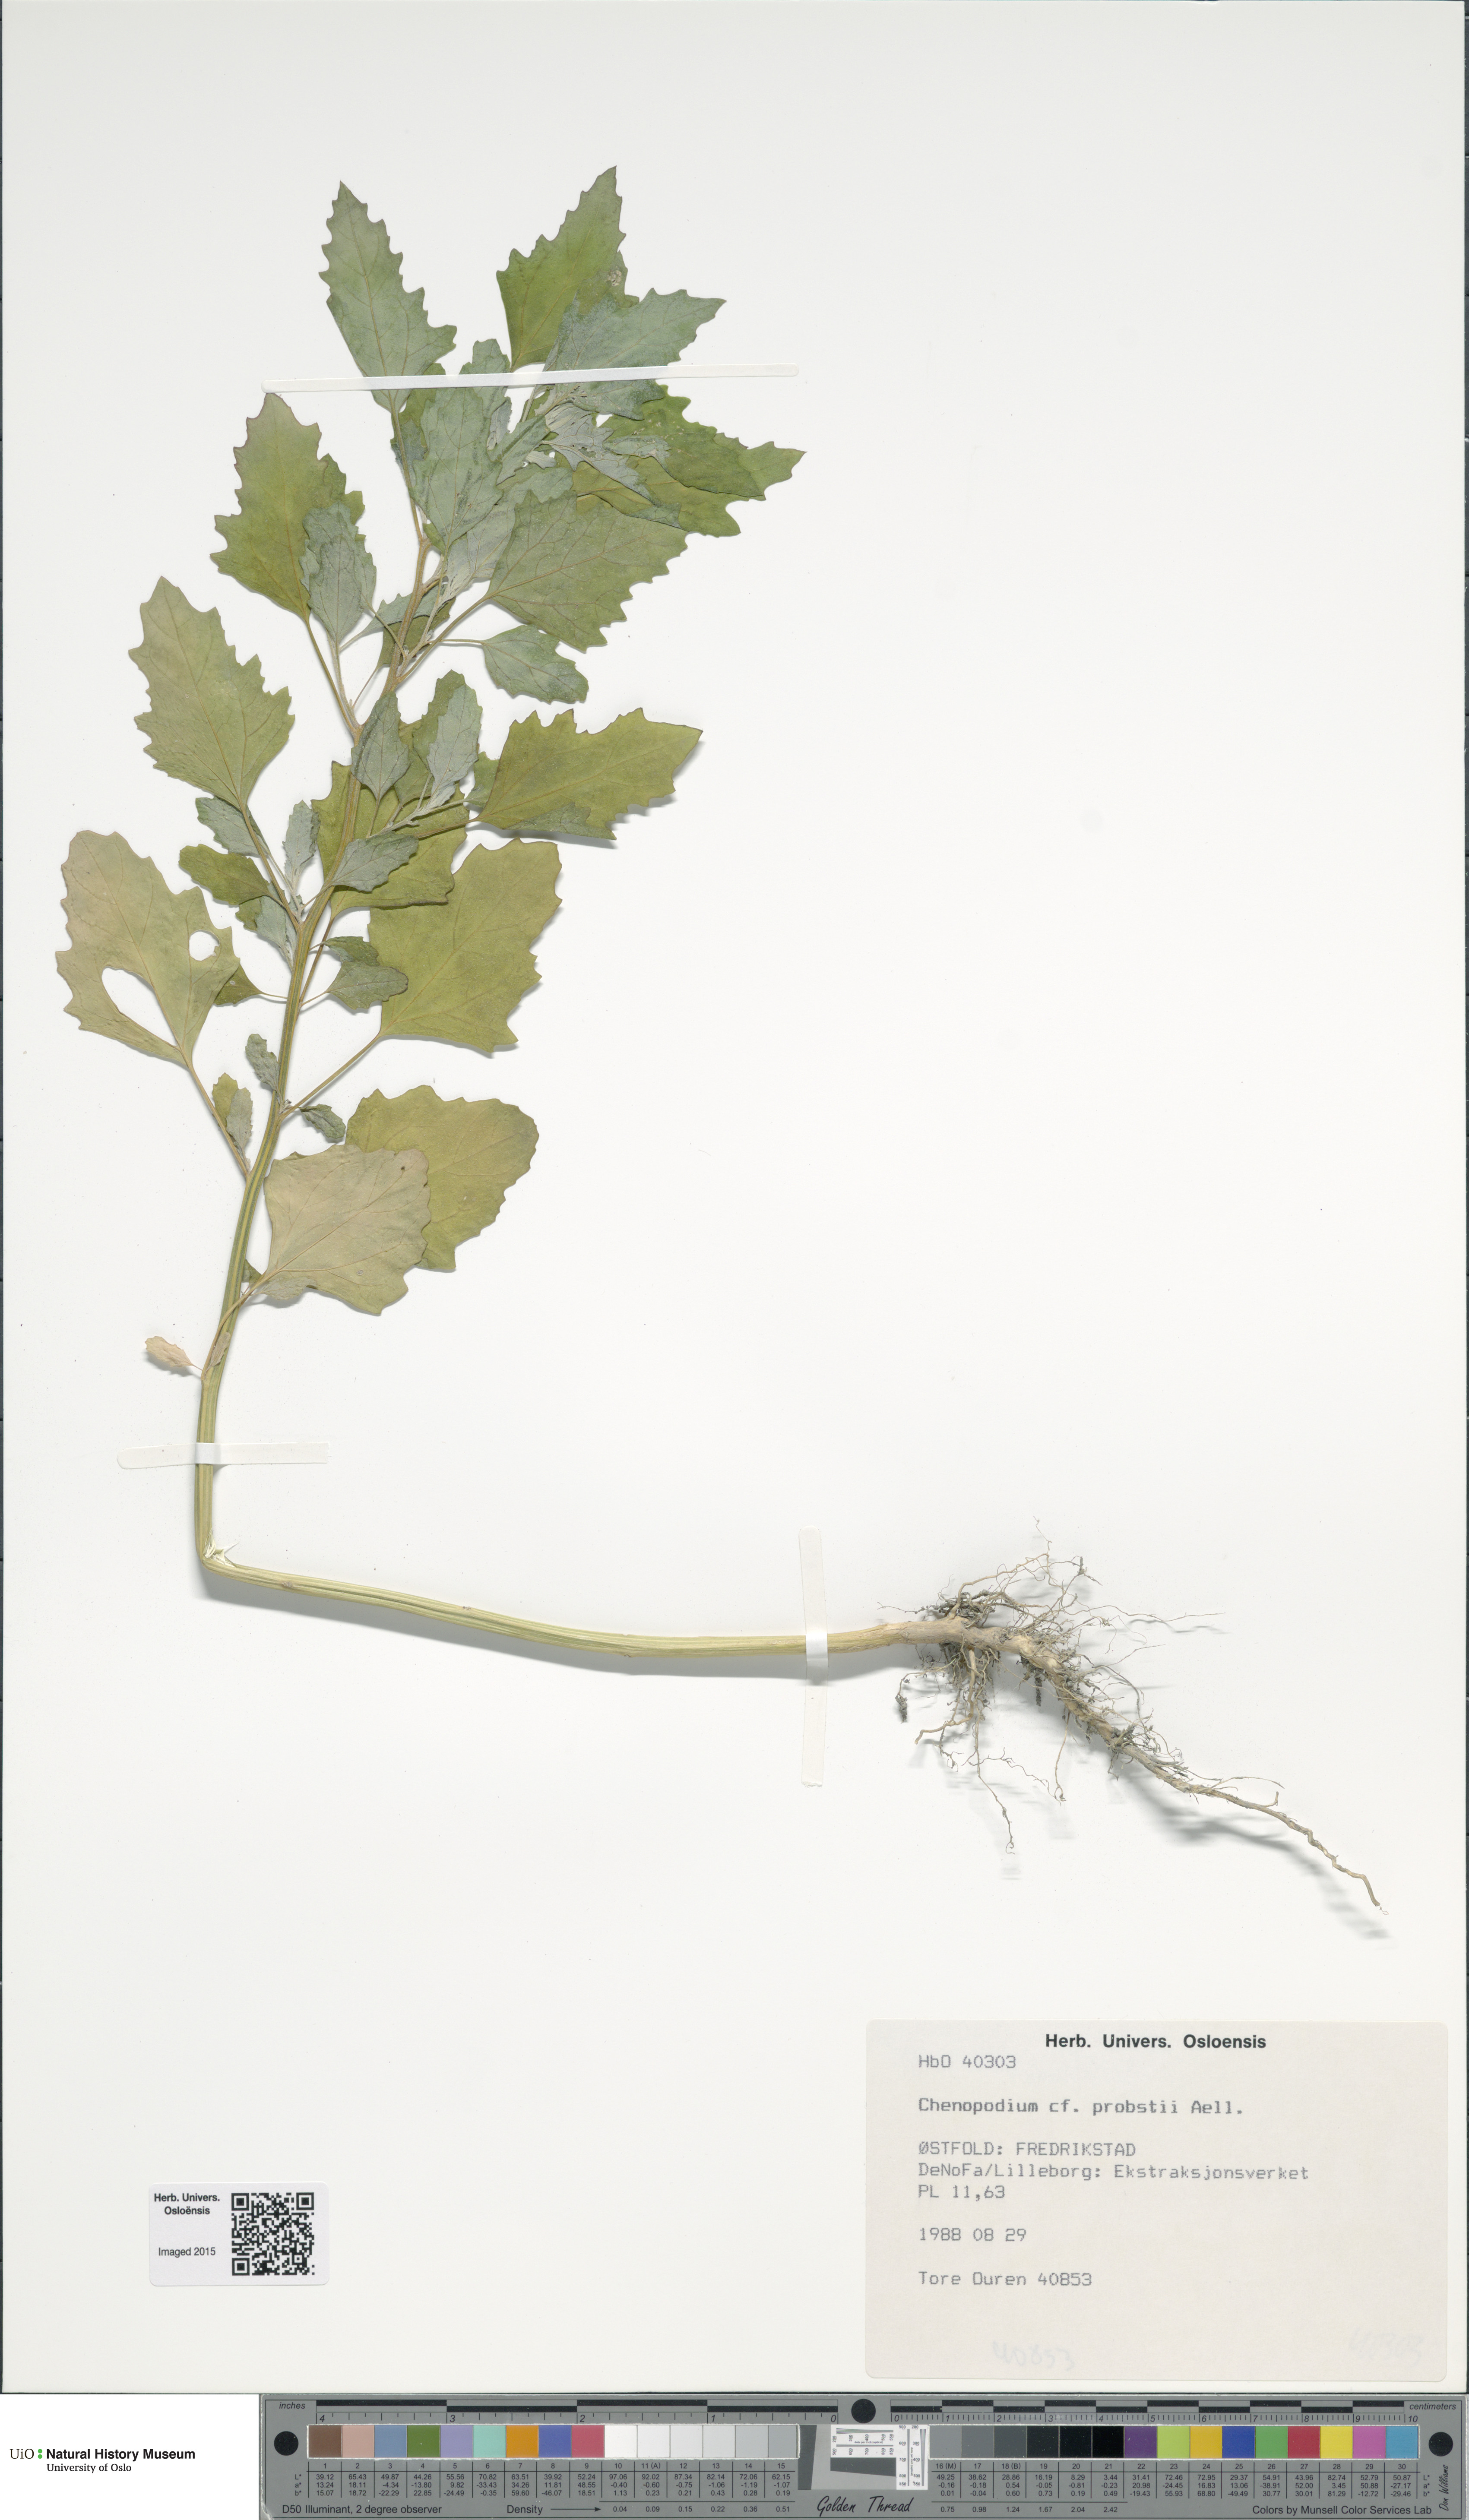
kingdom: Plantae
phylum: Tracheophyta
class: Magnoliopsida
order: Caryophyllales
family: Amaranthaceae
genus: Chenopodium
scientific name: Chenopodium probstii
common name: Probst's goosefoot
